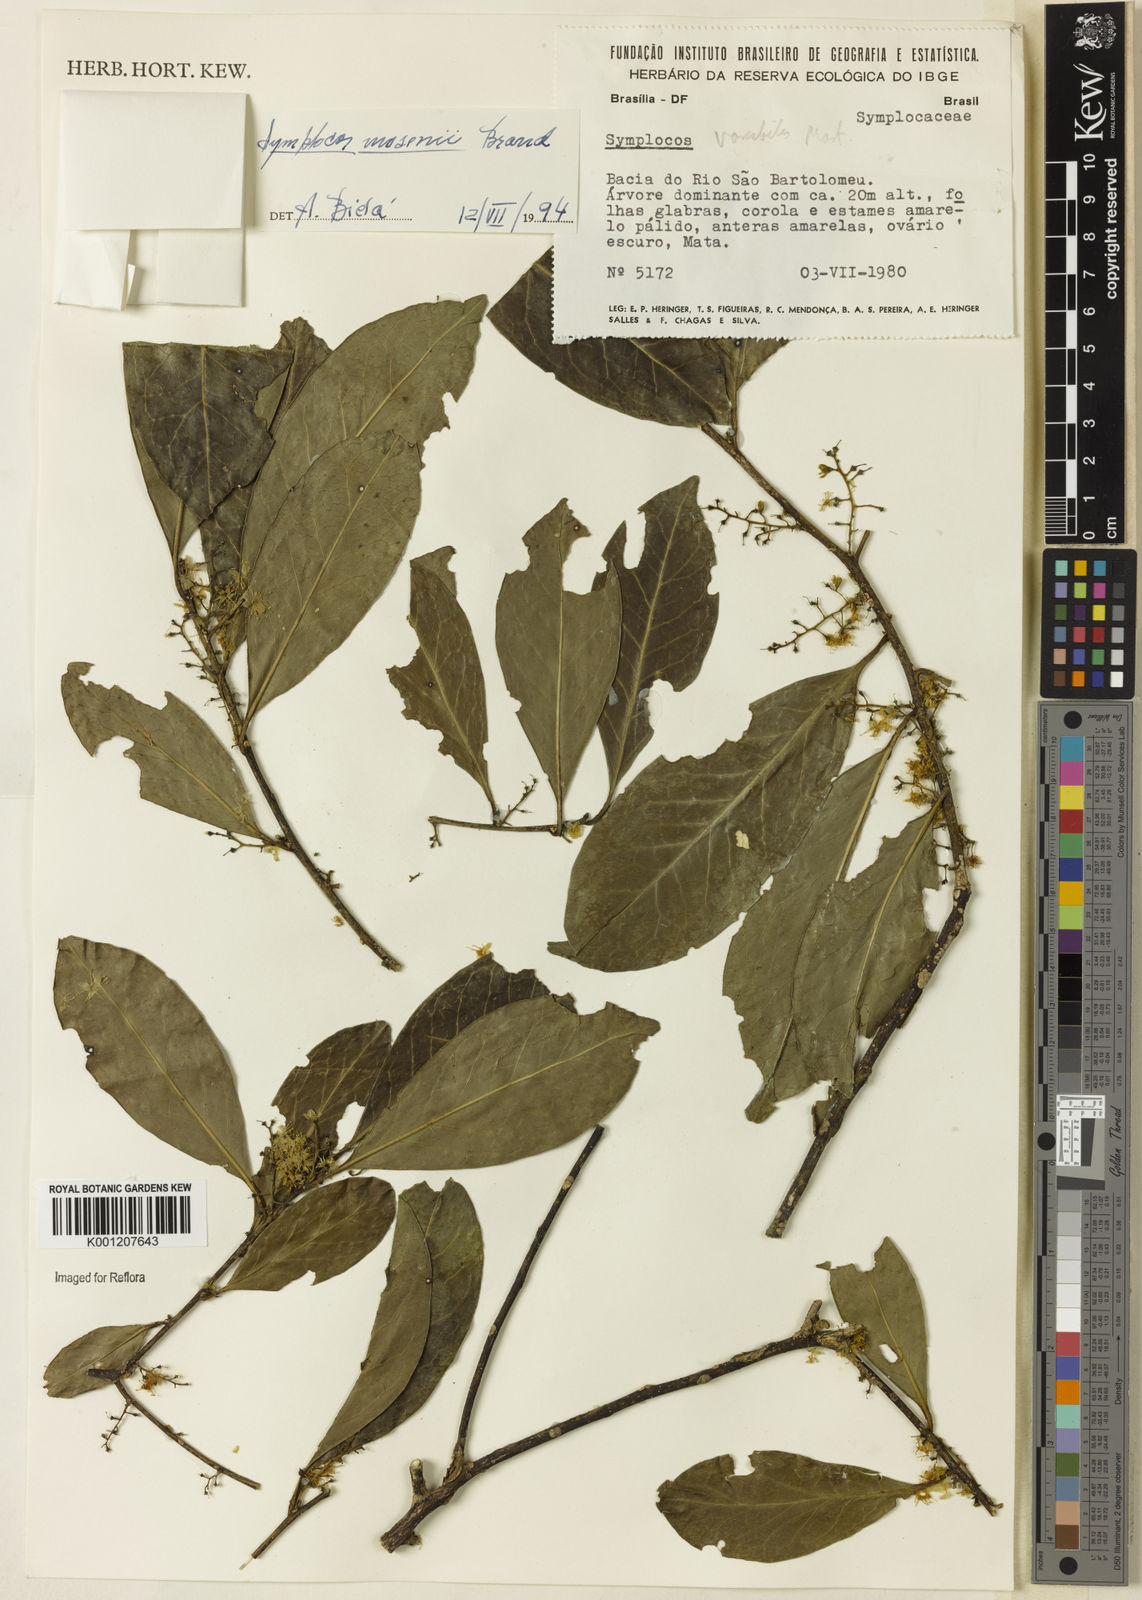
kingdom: Plantae
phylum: Tracheophyta
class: Magnoliopsida
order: Ericales
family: Symplocaceae
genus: Symplocos
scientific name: Symplocos
